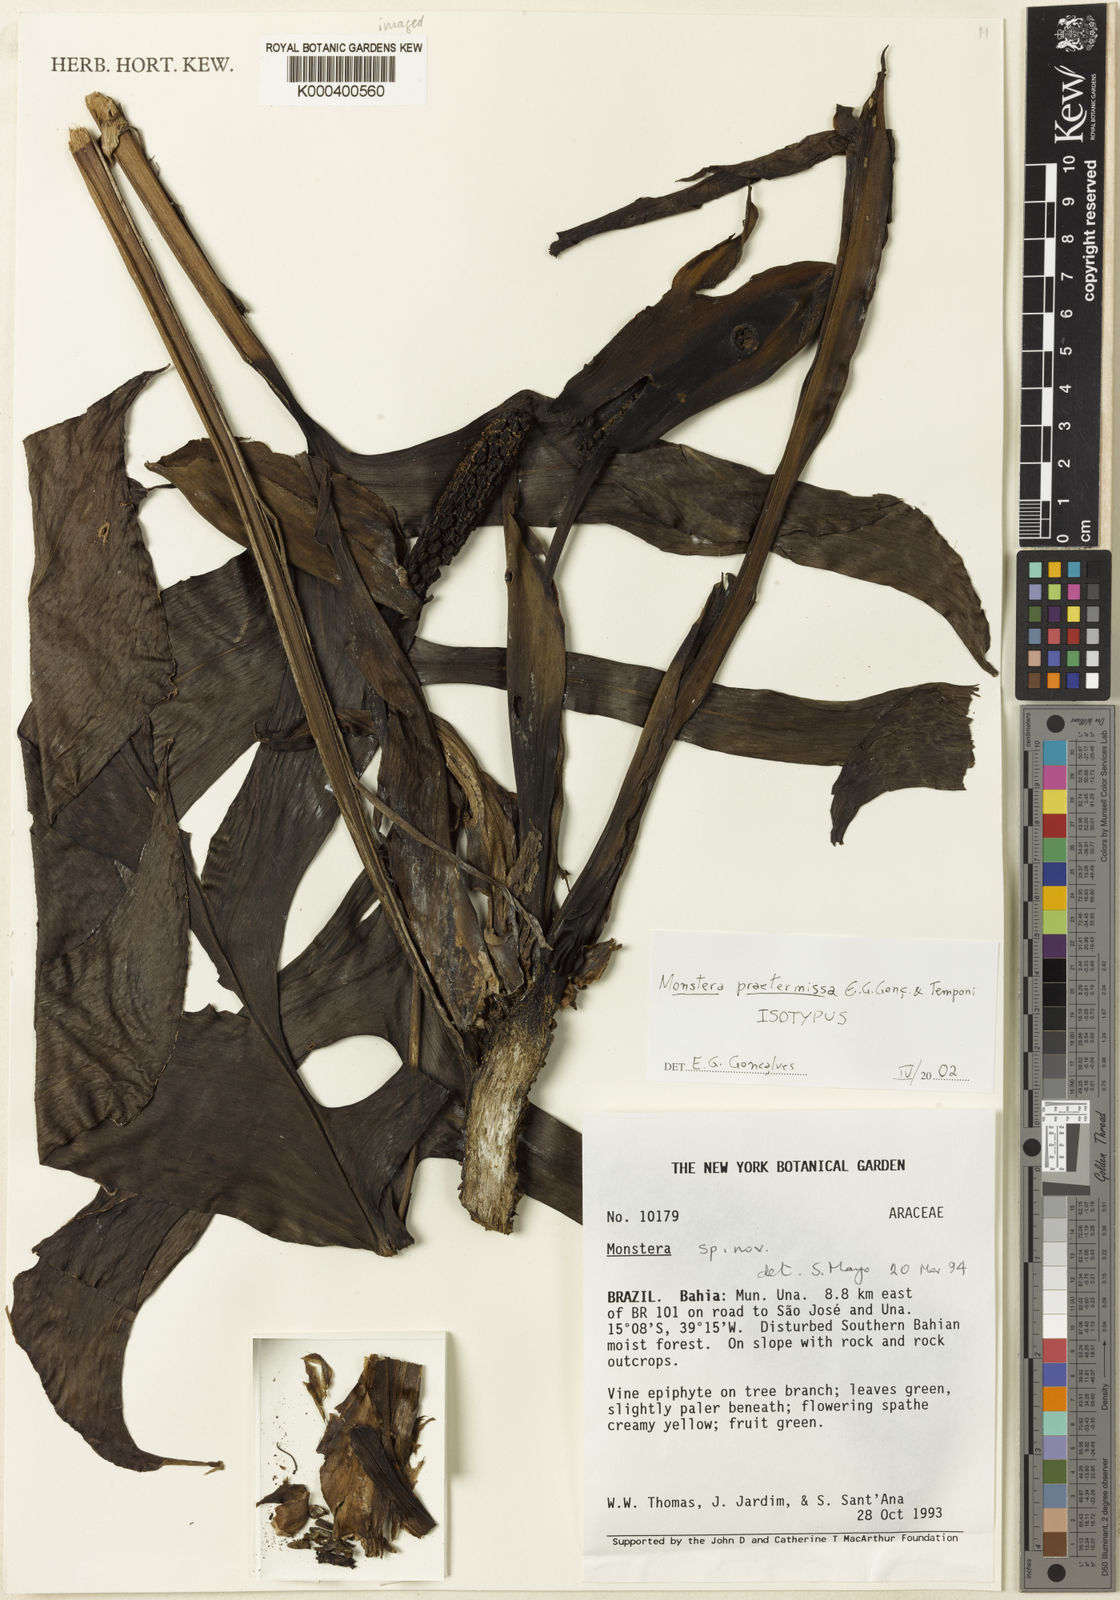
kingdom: Plantae
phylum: Tracheophyta
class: Liliopsida
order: Alismatales
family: Araceae
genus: Monstera
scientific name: Monstera
